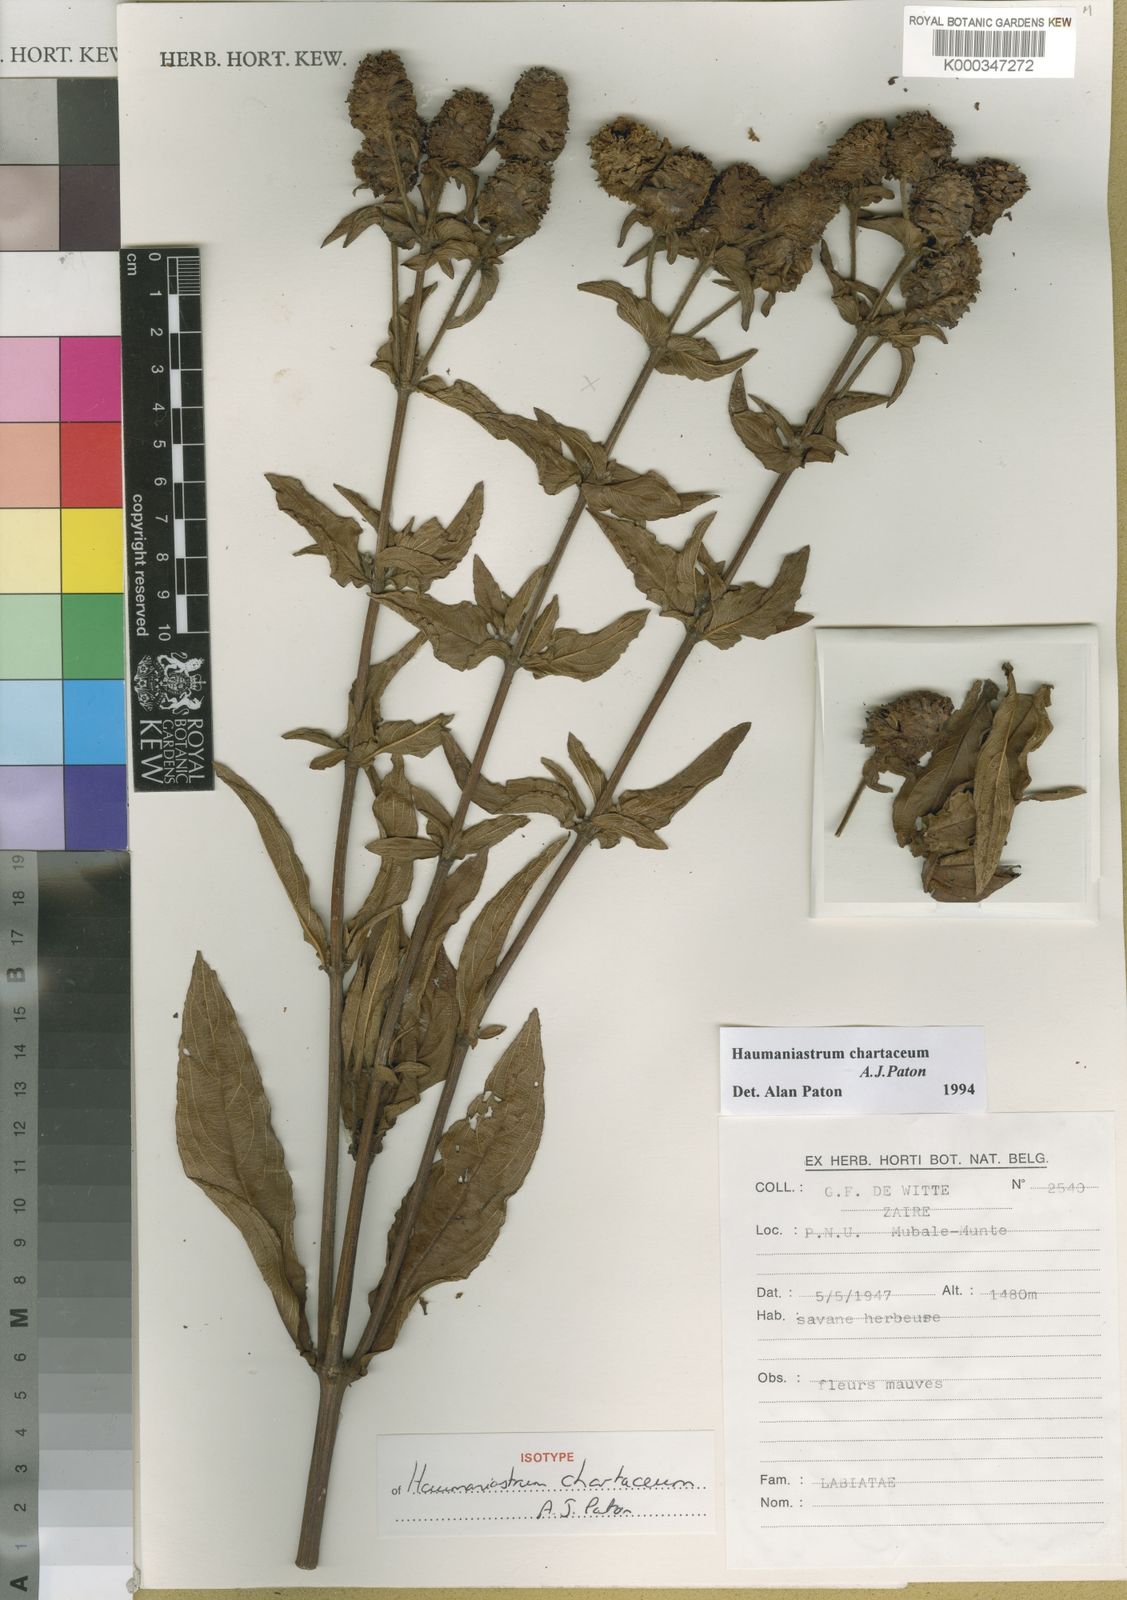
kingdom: Plantae
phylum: Tracheophyta
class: Magnoliopsida
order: Lamiales
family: Lamiaceae
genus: Haumaniastrum
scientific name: Haumaniastrum chartaceum
